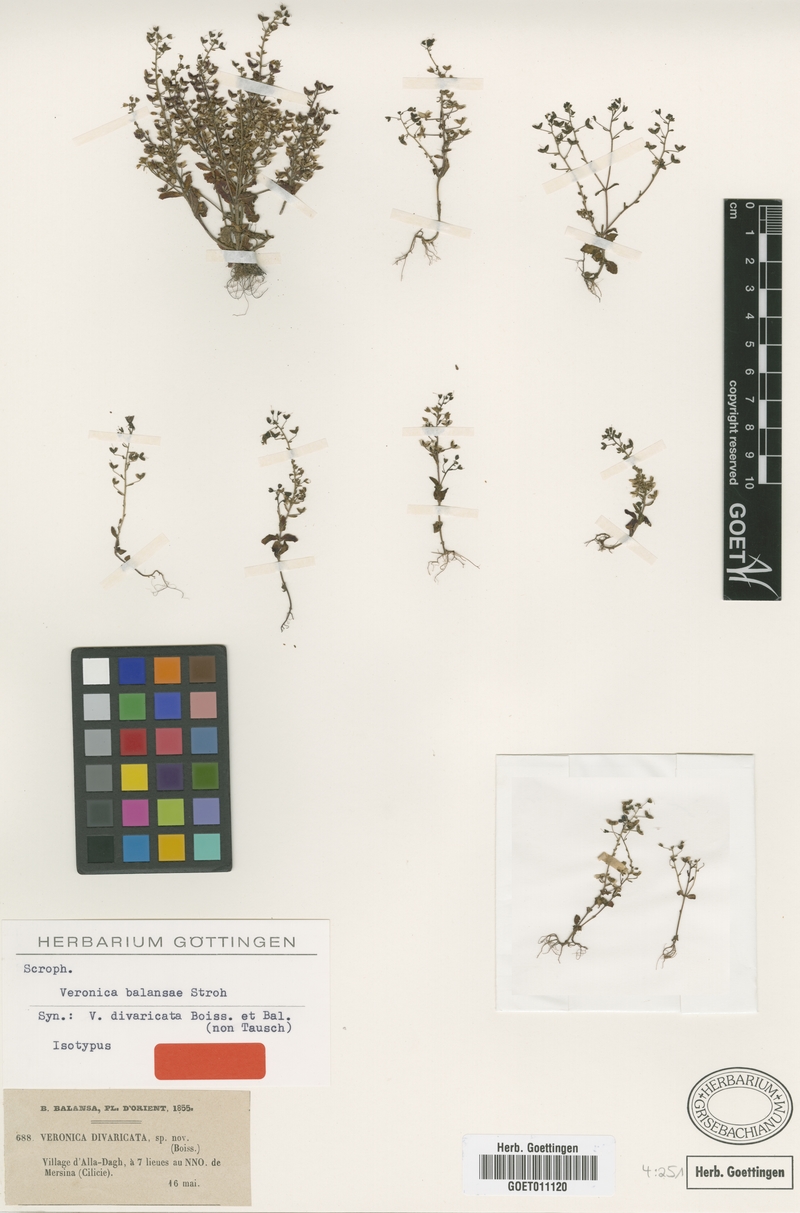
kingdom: Plantae
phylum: Tracheophyta
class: Magnoliopsida
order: Lamiales
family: Plantaginaceae
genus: Veronica
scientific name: Veronica balansae
